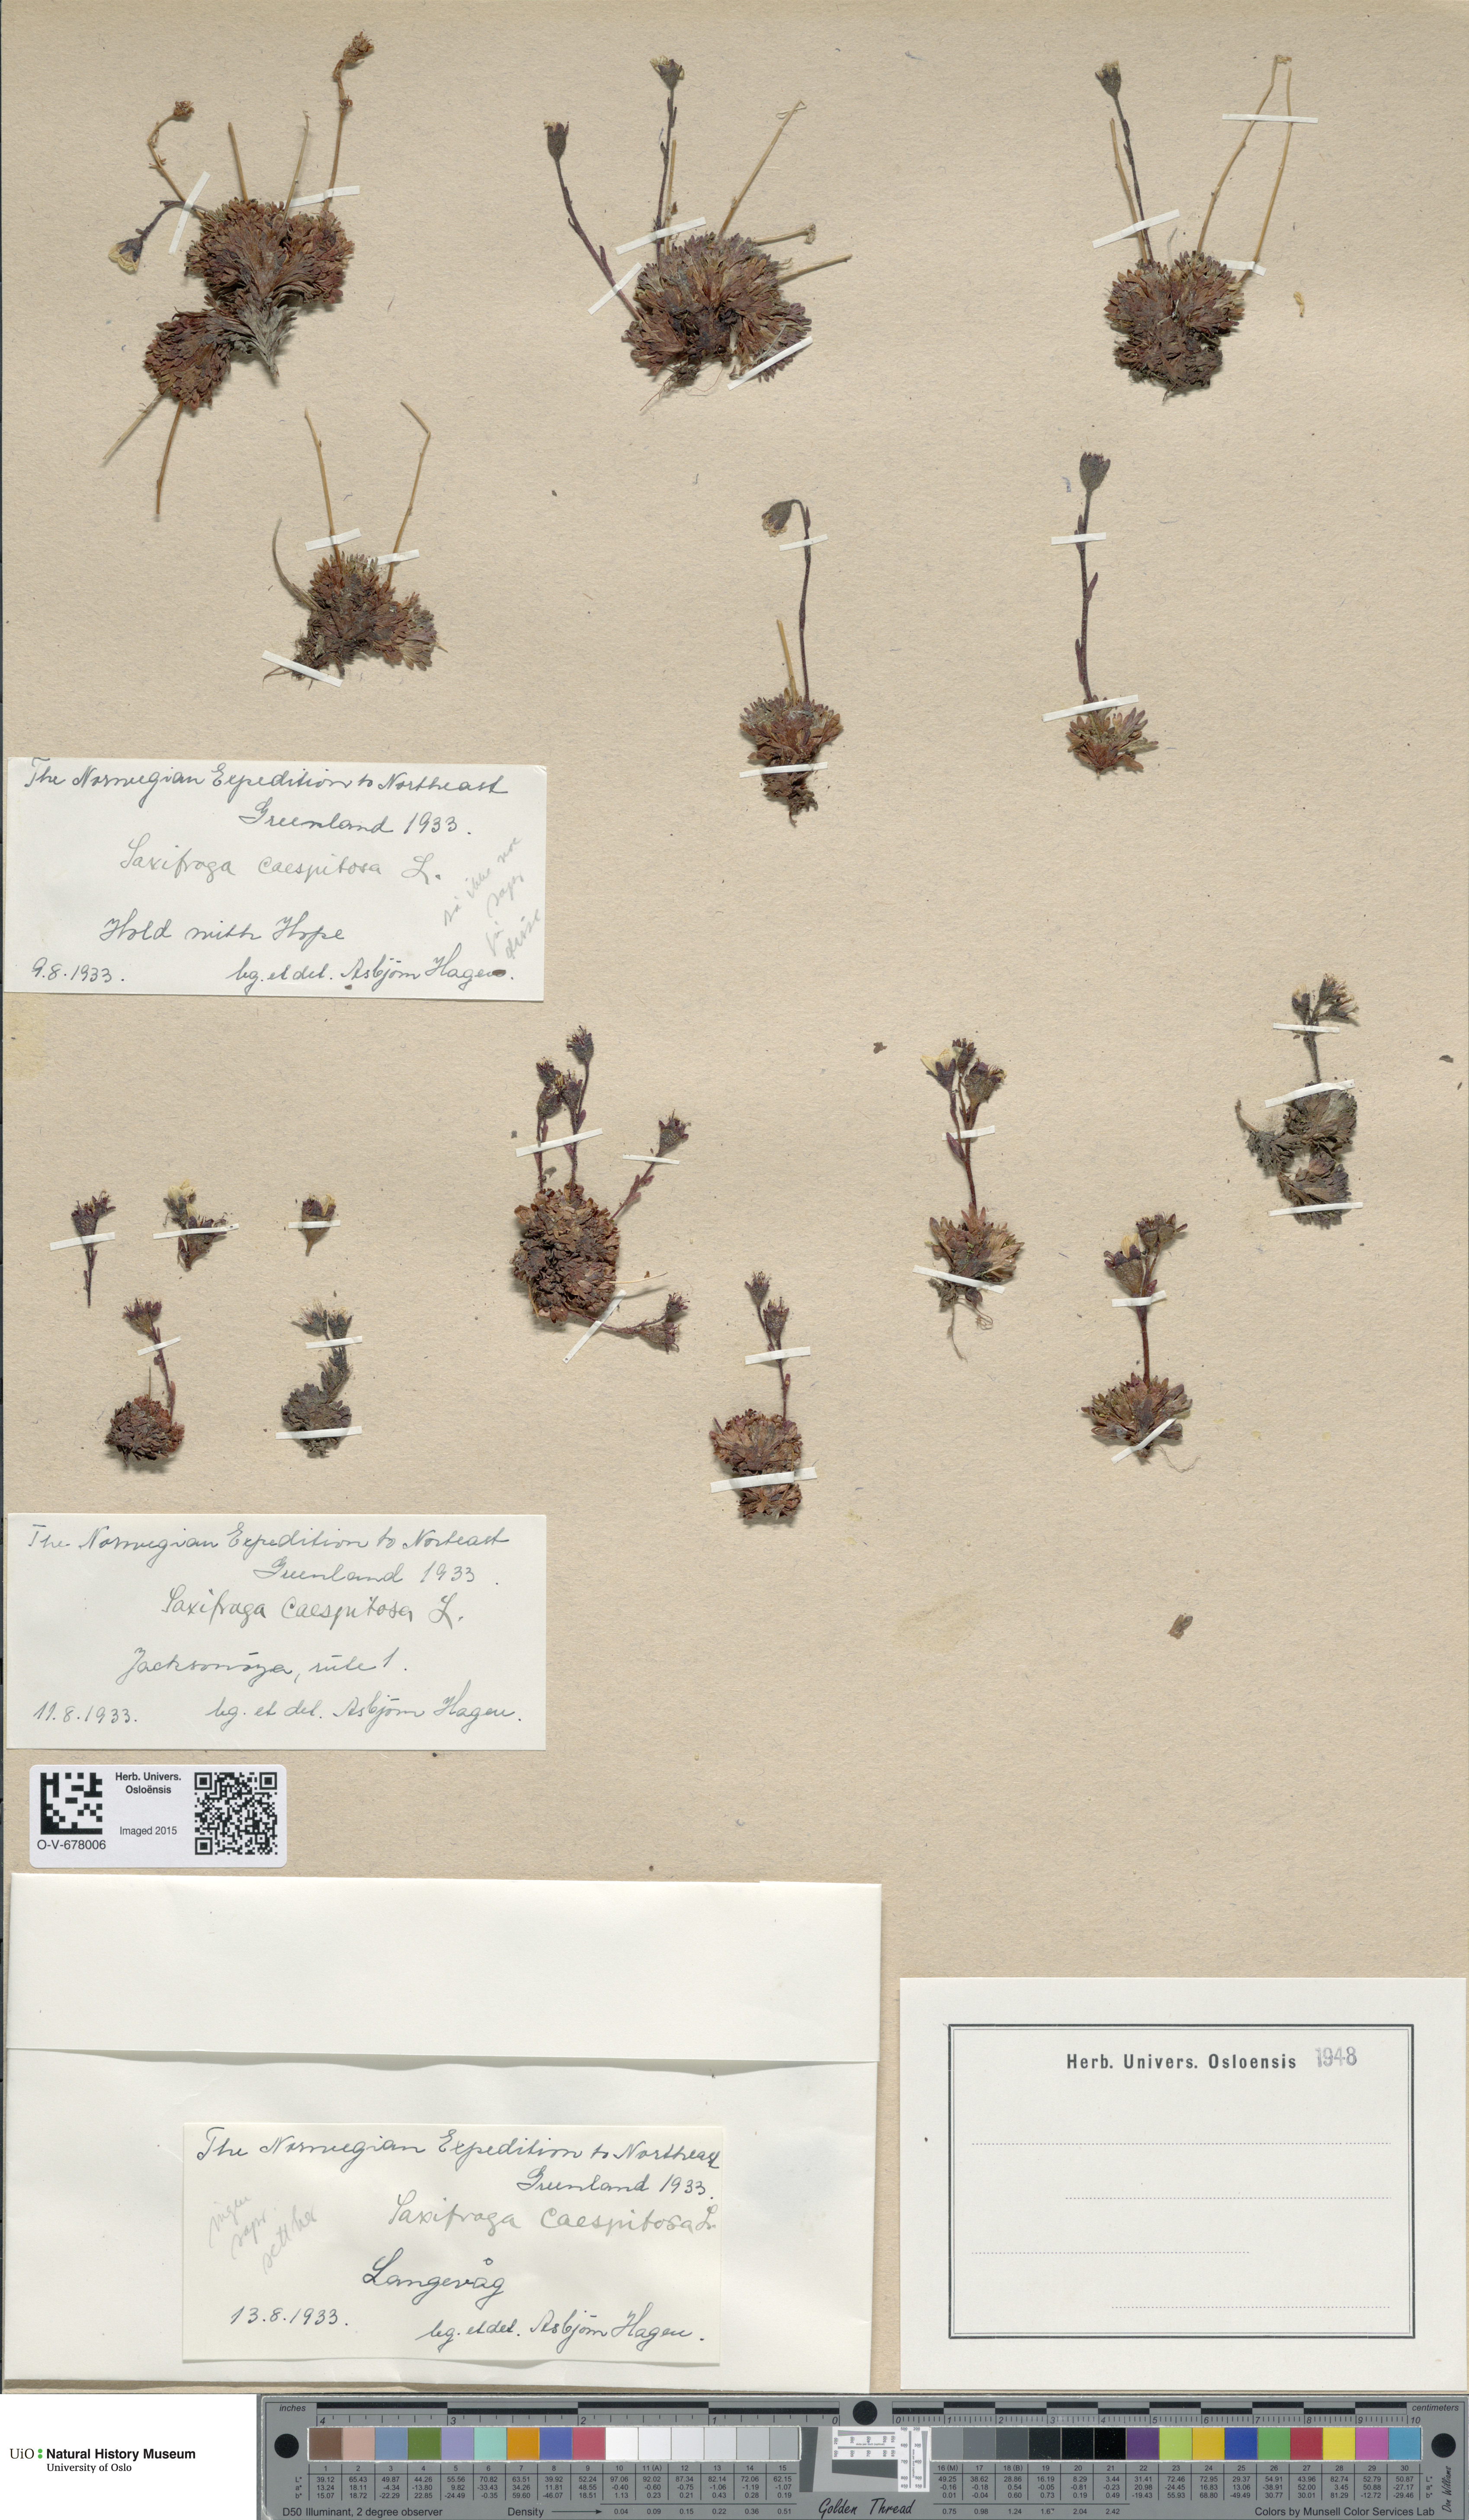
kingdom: Plantae
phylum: Tracheophyta
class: Magnoliopsida
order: Saxifragales
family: Saxifragaceae
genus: Saxifraga
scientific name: Saxifraga cespitosa
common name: Tufted saxifrage
